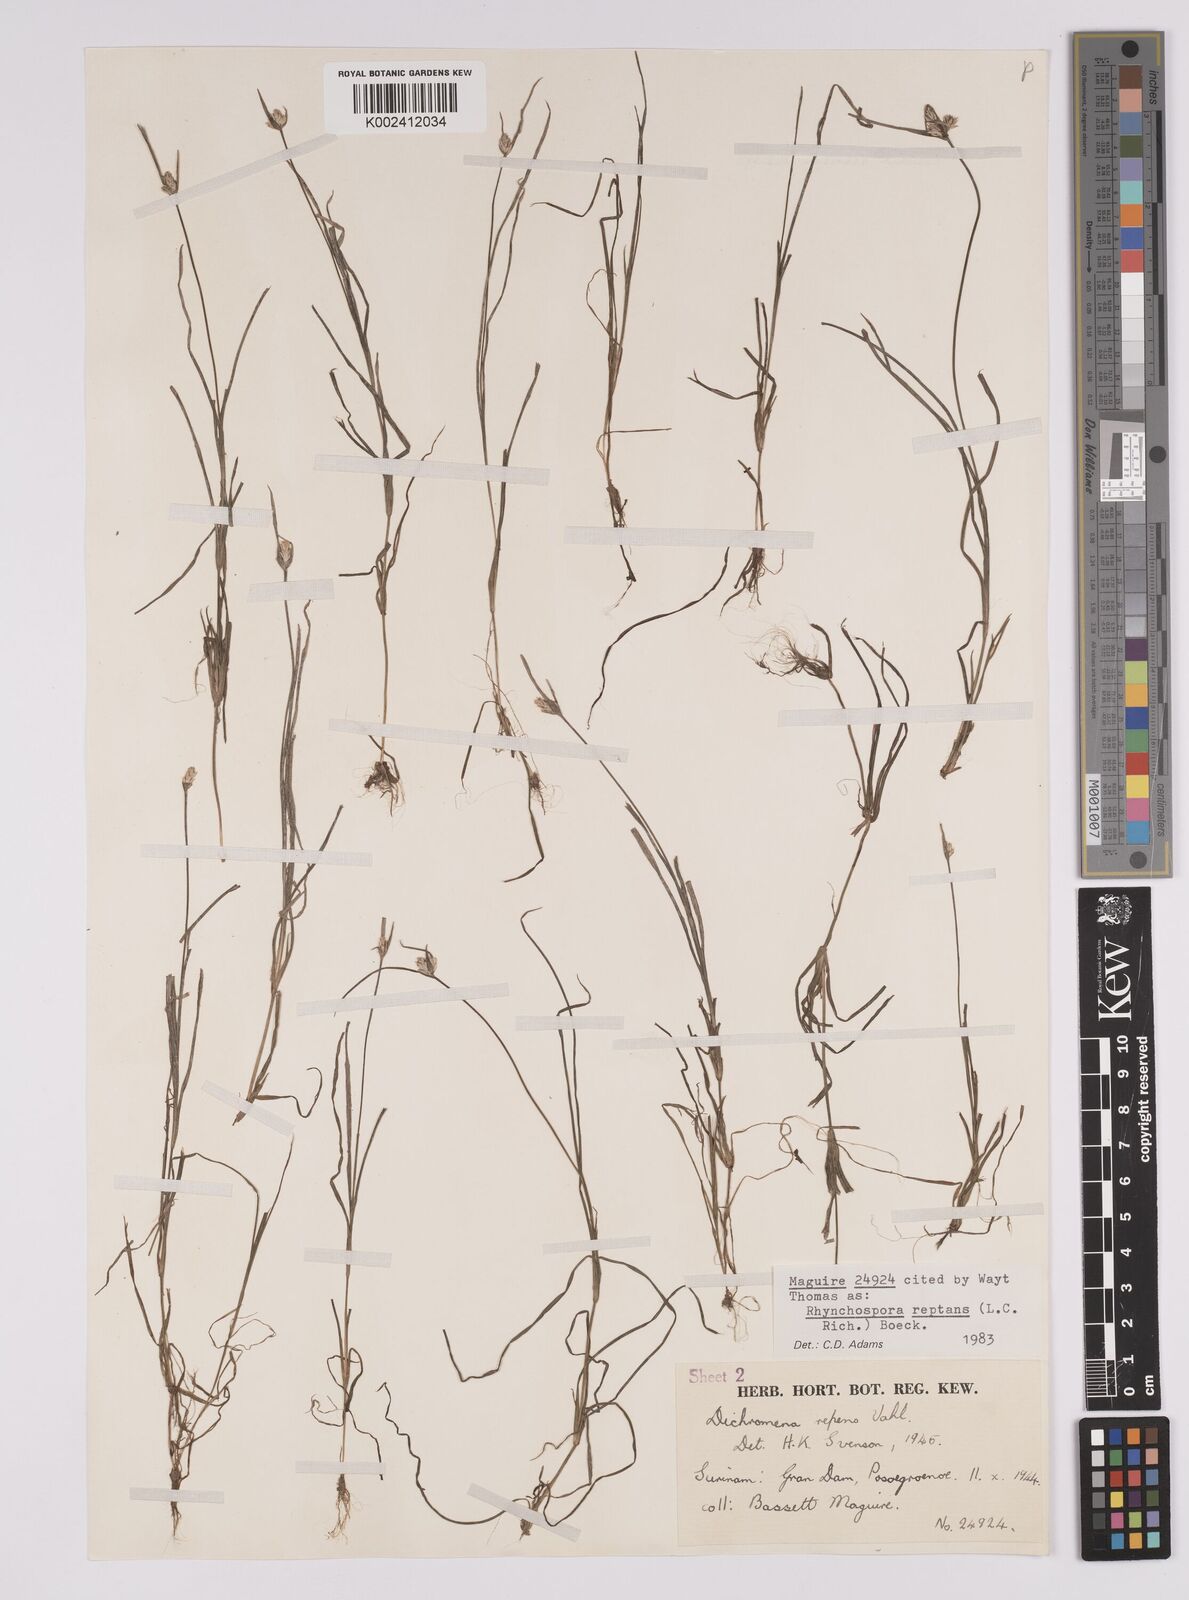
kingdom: Plantae
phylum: Tracheophyta
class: Liliopsida
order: Poales
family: Cyperaceae
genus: Rhynchospora
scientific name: Rhynchospora reptans
